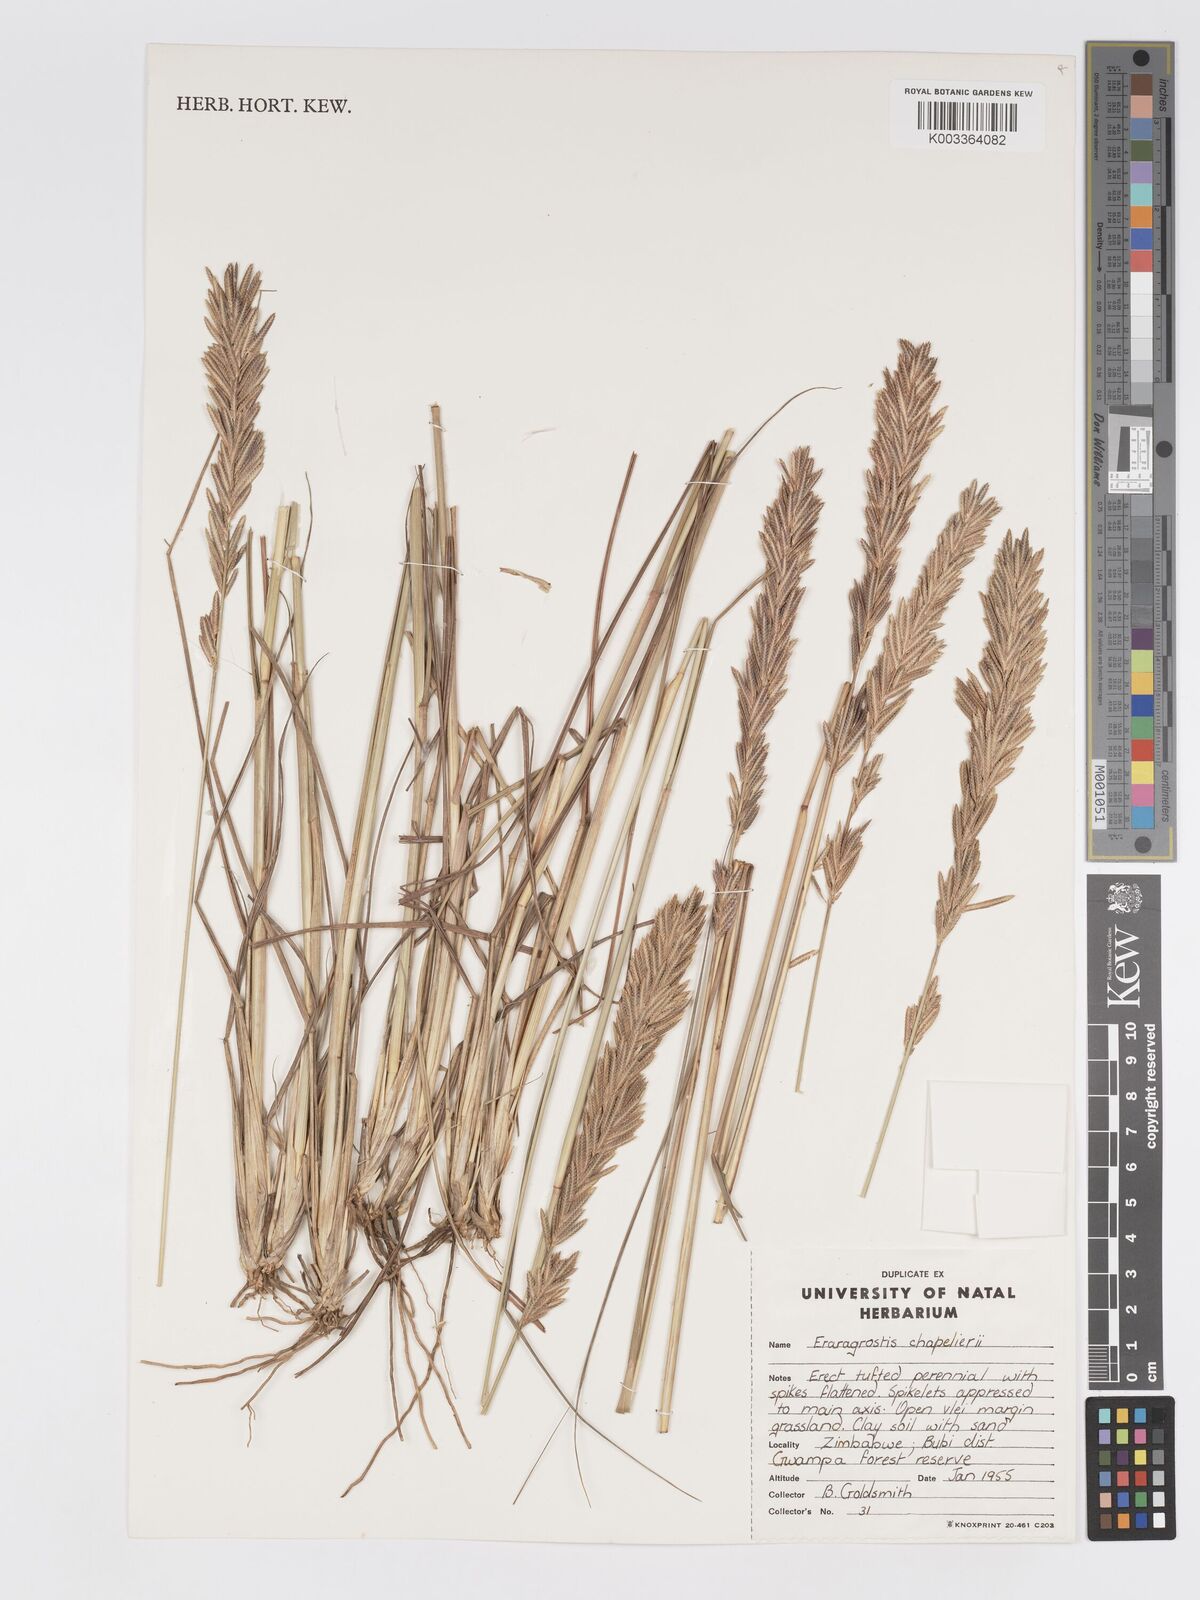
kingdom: Plantae
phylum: Tracheophyta
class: Liliopsida
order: Poales
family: Poaceae
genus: Eragrostis
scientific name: Eragrostis chapelieri
